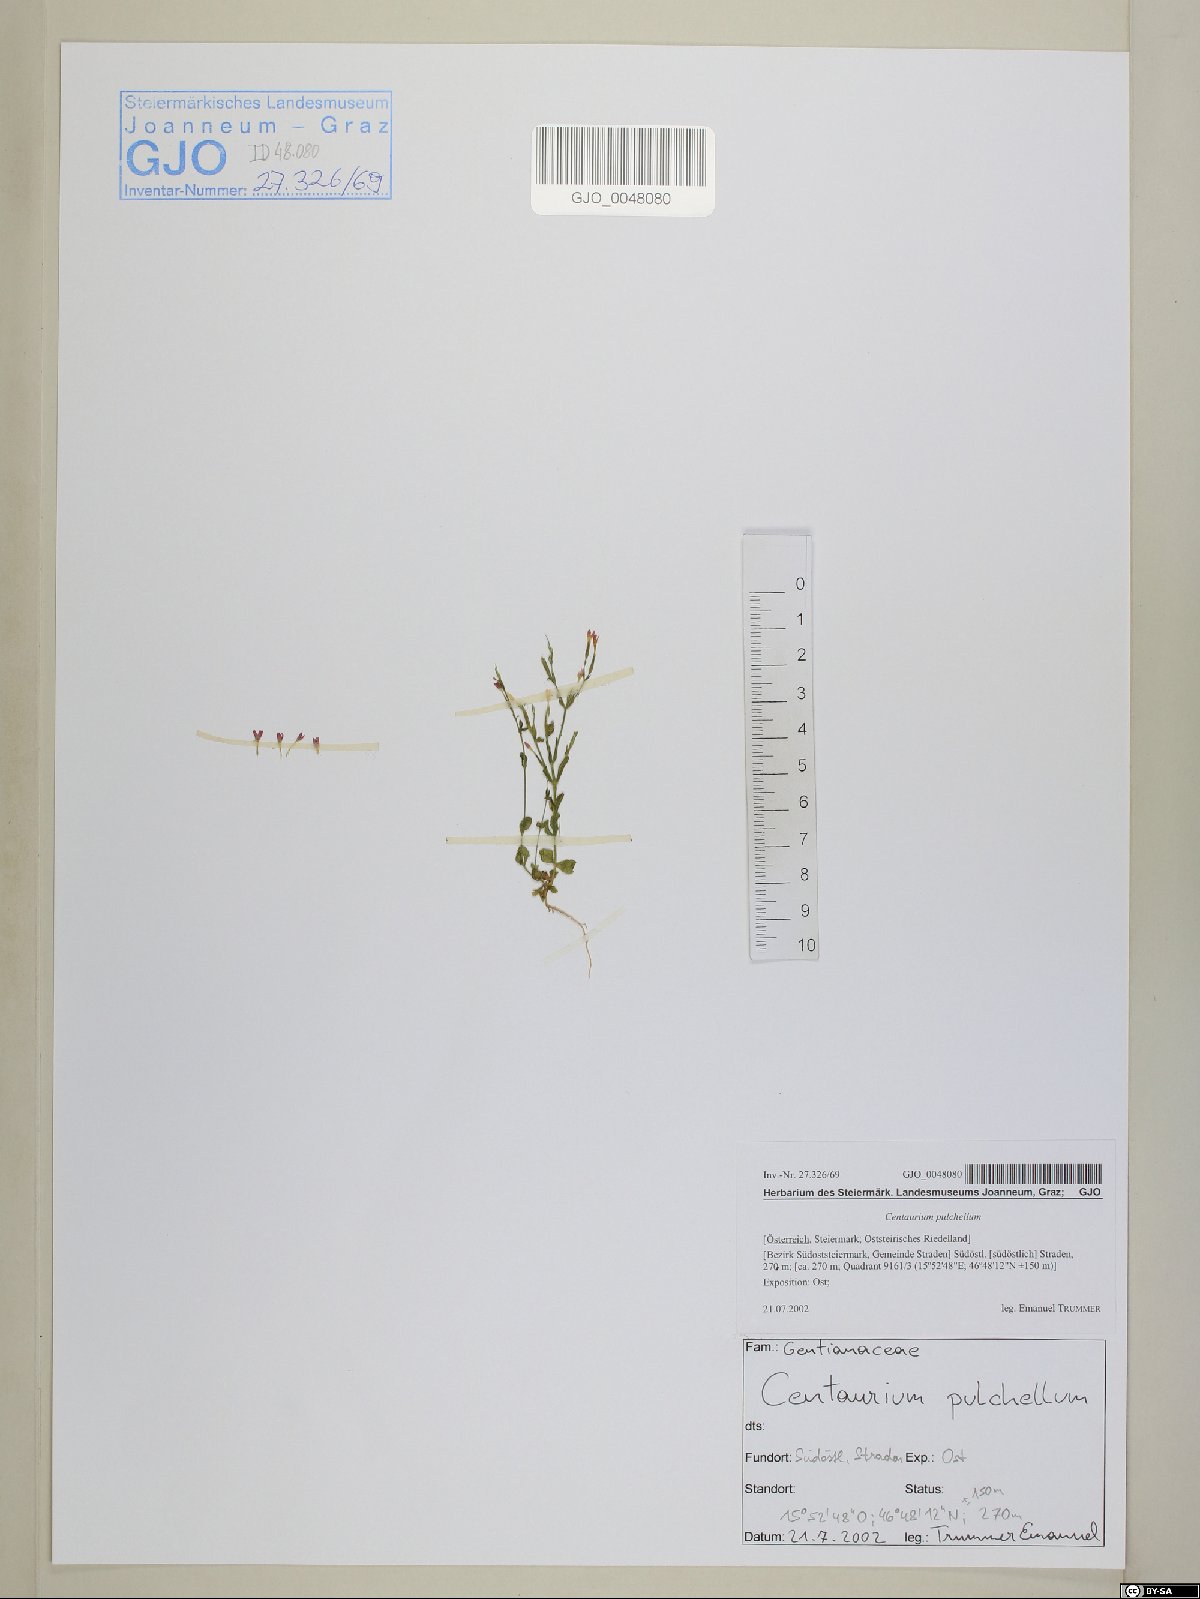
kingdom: Plantae
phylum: Tracheophyta
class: Magnoliopsida
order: Gentianales
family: Gentianaceae
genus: Centaurium
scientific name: Centaurium pulchellum
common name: Lesser centaury
